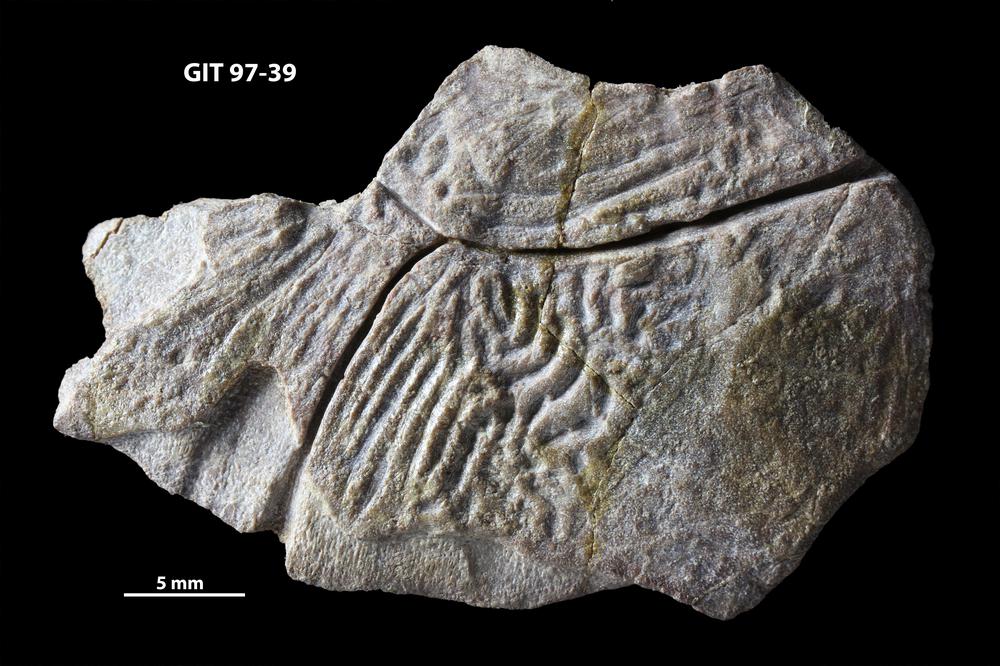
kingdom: Animalia
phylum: Chordata
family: Holonematidae
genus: Holonema
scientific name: Holonema
